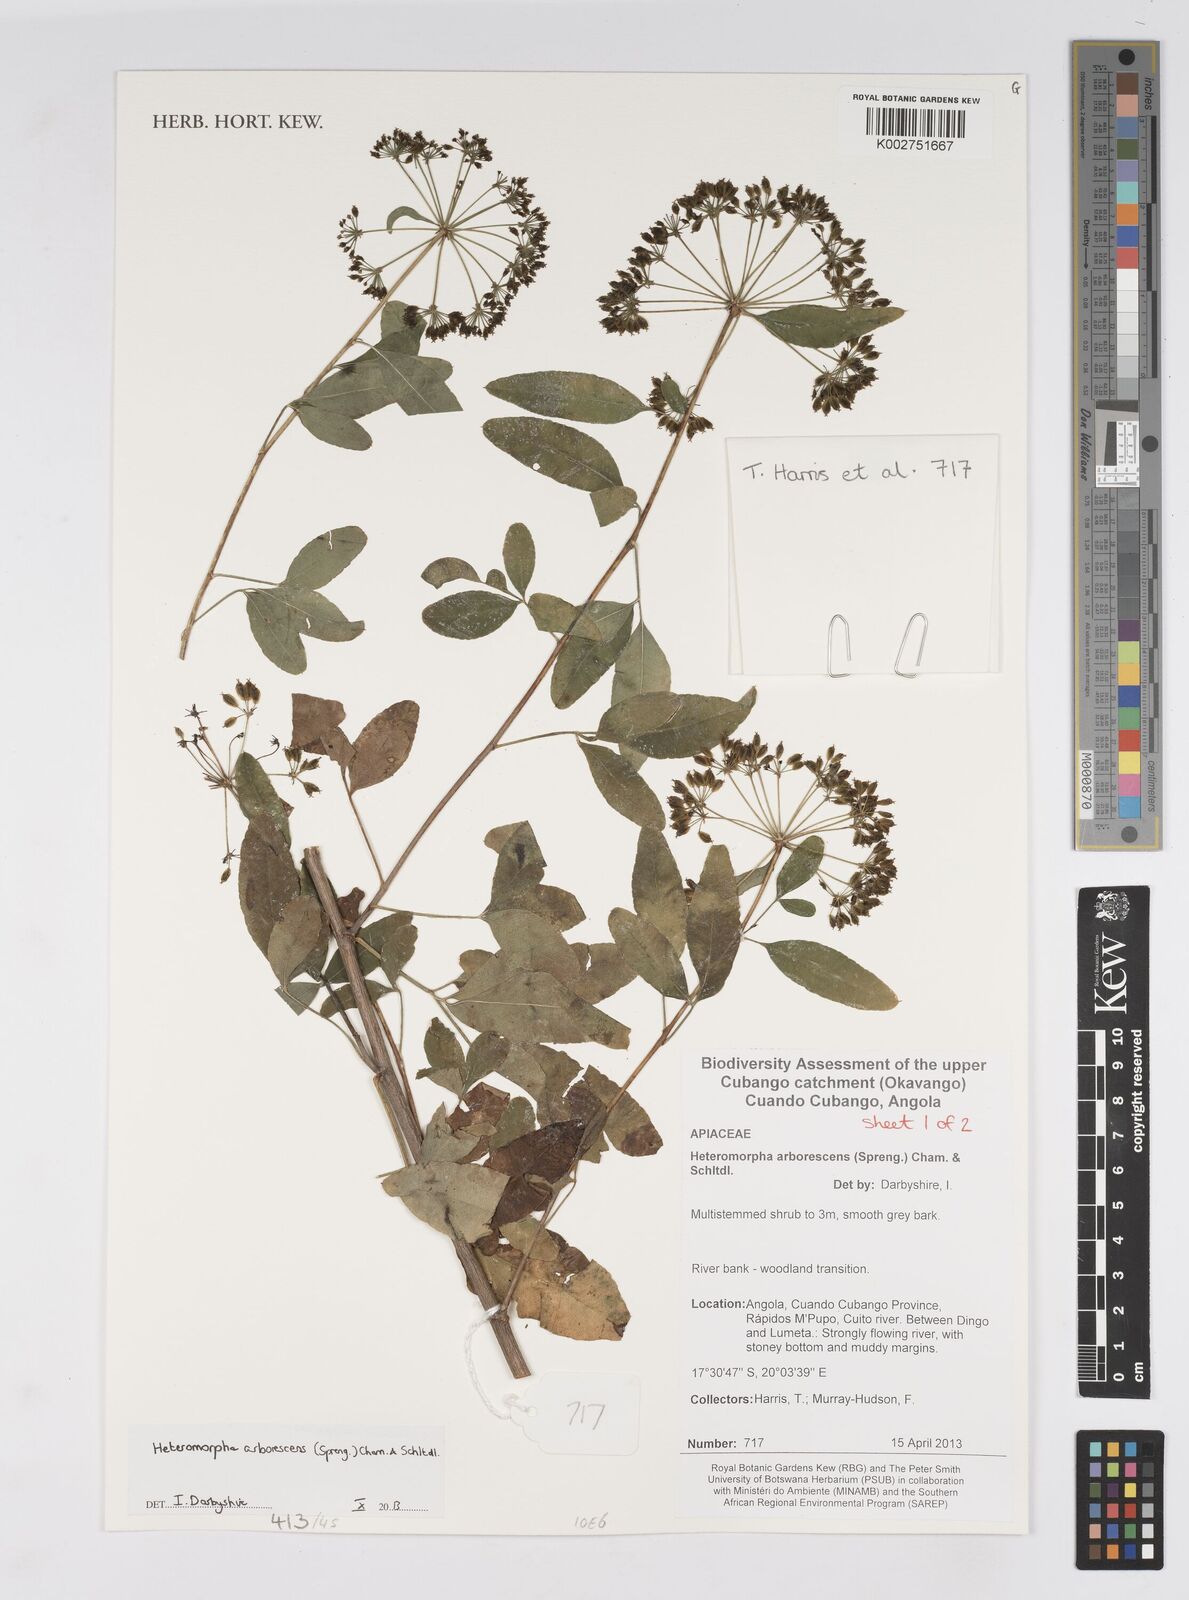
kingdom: Plantae
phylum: Tracheophyta
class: Magnoliopsida
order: Apiales
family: Apiaceae
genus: Heteromorpha
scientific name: Heteromorpha arborescens
